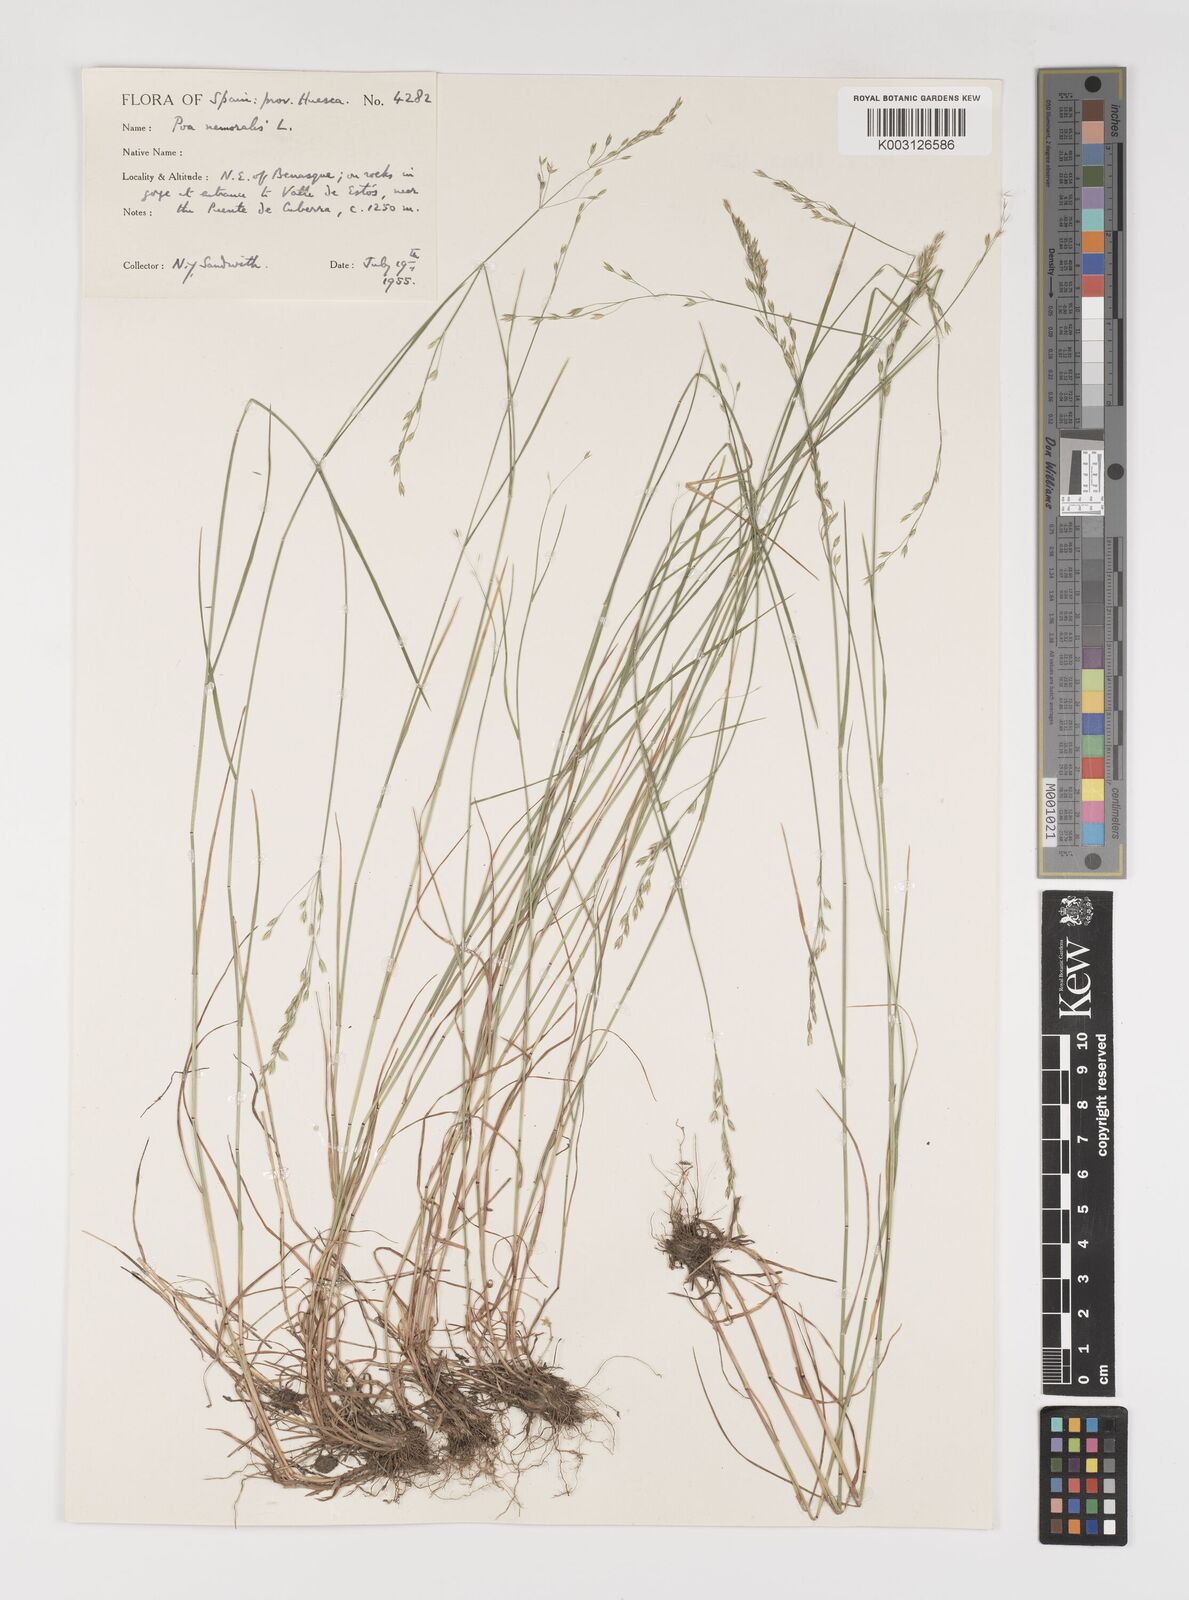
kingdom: Plantae
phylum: Tracheophyta
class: Liliopsida
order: Poales
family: Poaceae
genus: Poa
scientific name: Poa nemoralis
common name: Wood bluegrass
